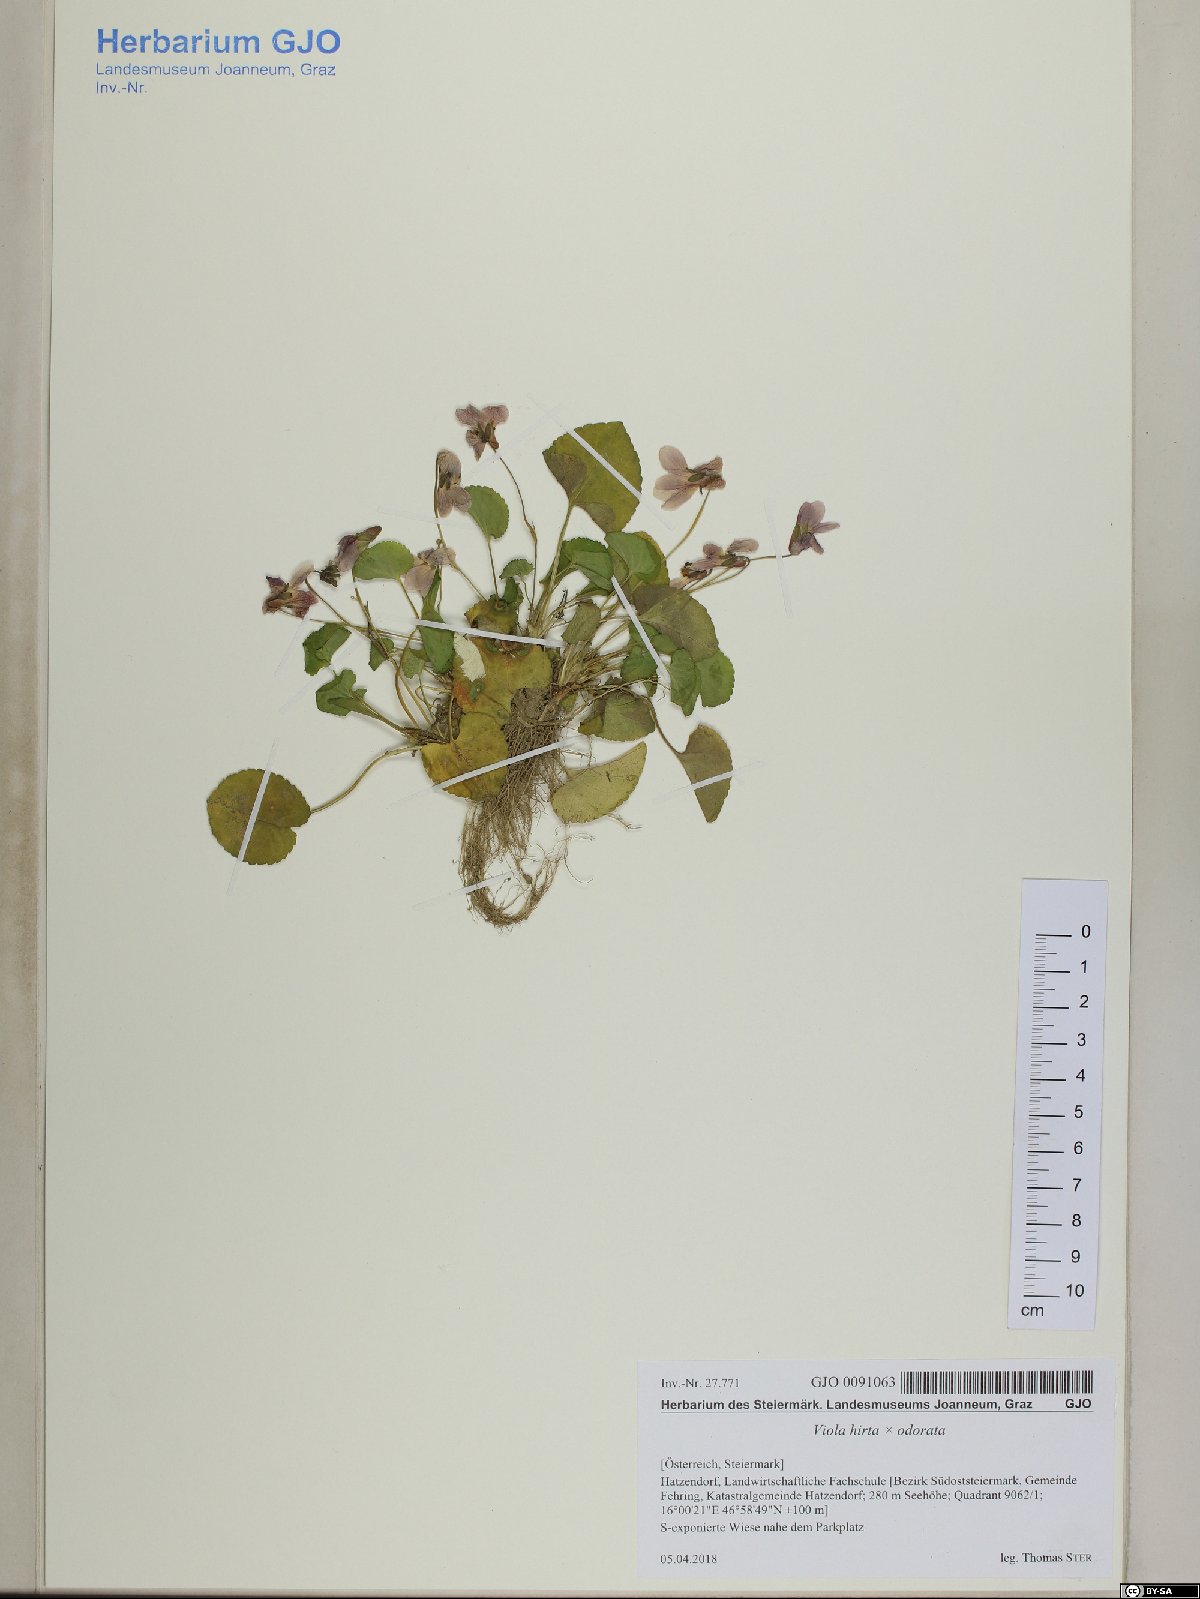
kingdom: Plantae
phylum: Tracheophyta
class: Magnoliopsida
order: Malpighiales
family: Violaceae
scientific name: Violaceae
